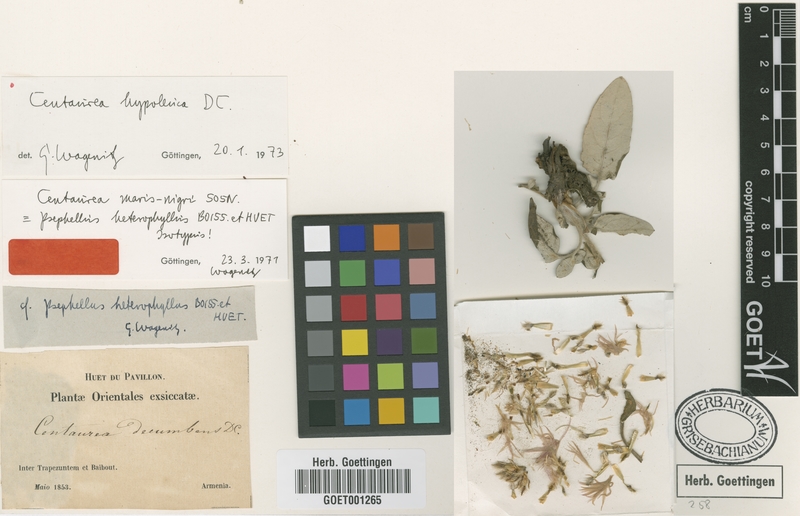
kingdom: Plantae
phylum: Tracheophyta
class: Magnoliopsida
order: Asterales
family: Asteraceae
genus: Psephellus
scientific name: Psephellus hypoleucus
